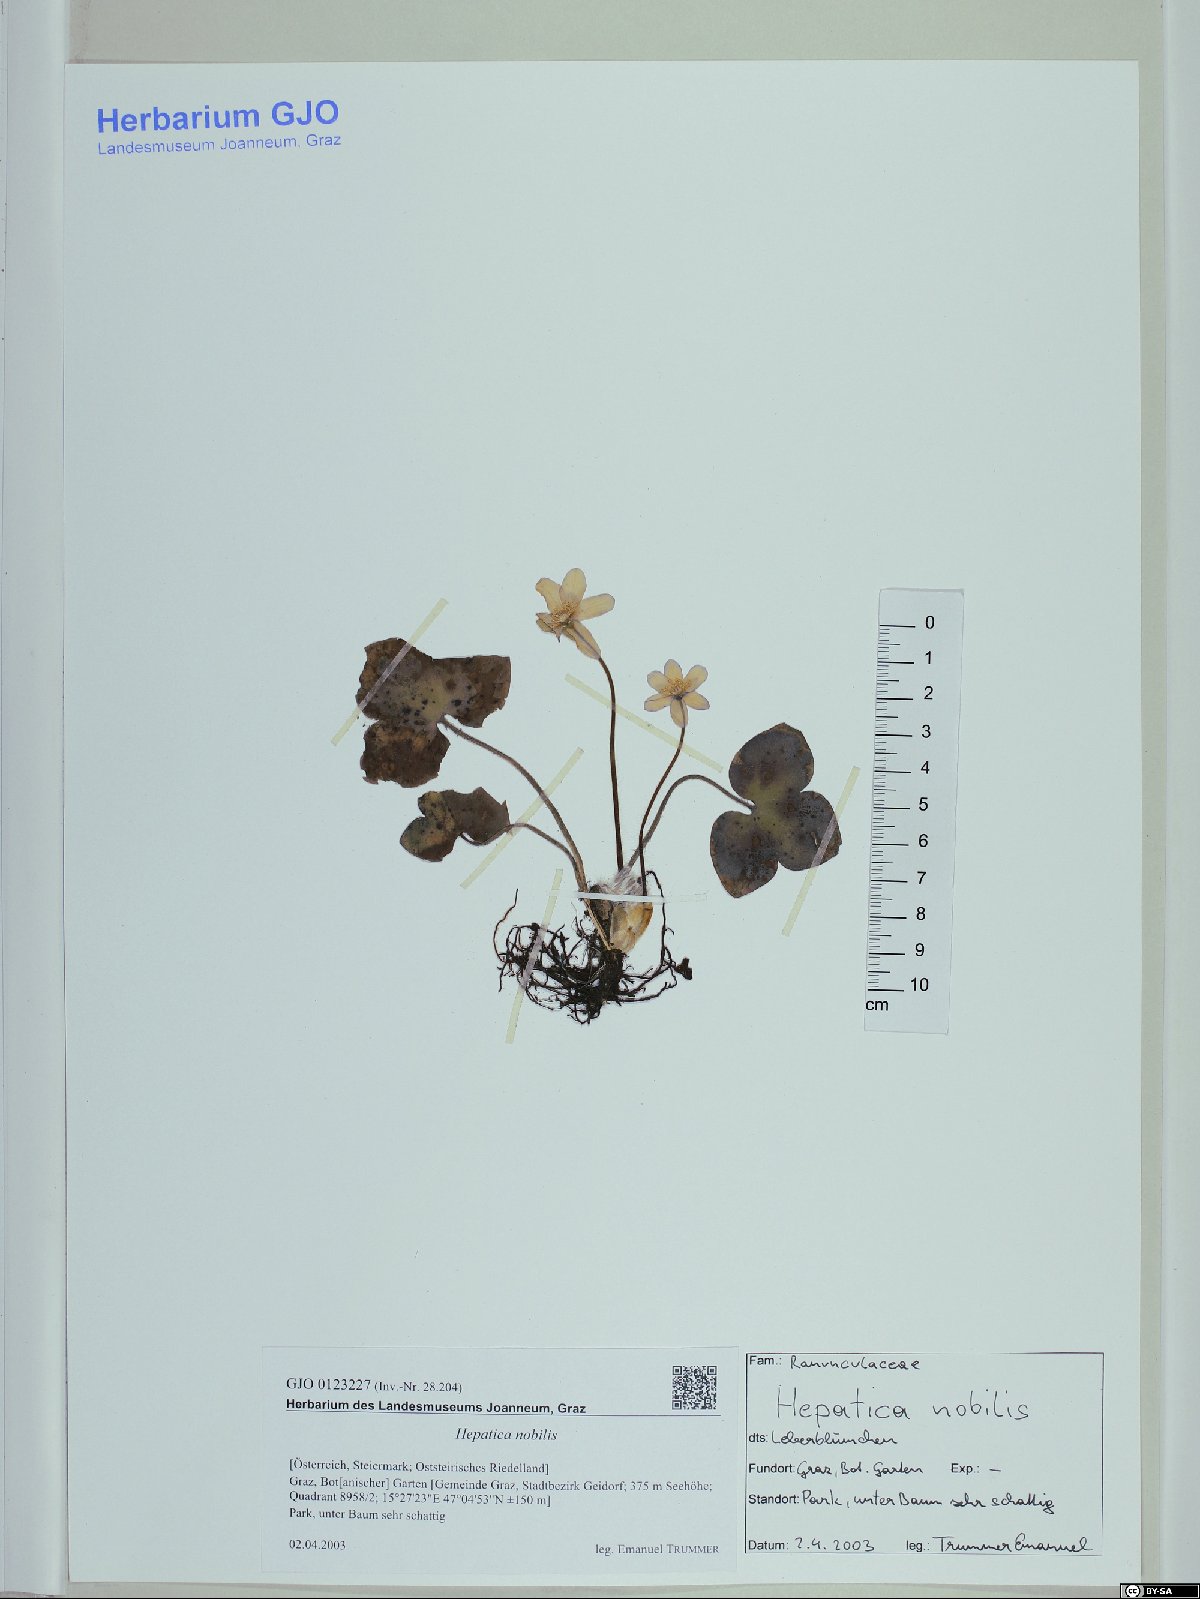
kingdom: Plantae
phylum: Tracheophyta
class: Magnoliopsida
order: Ranunculales
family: Ranunculaceae
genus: Hepatica
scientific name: Hepatica nobilis
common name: Liverleaf
